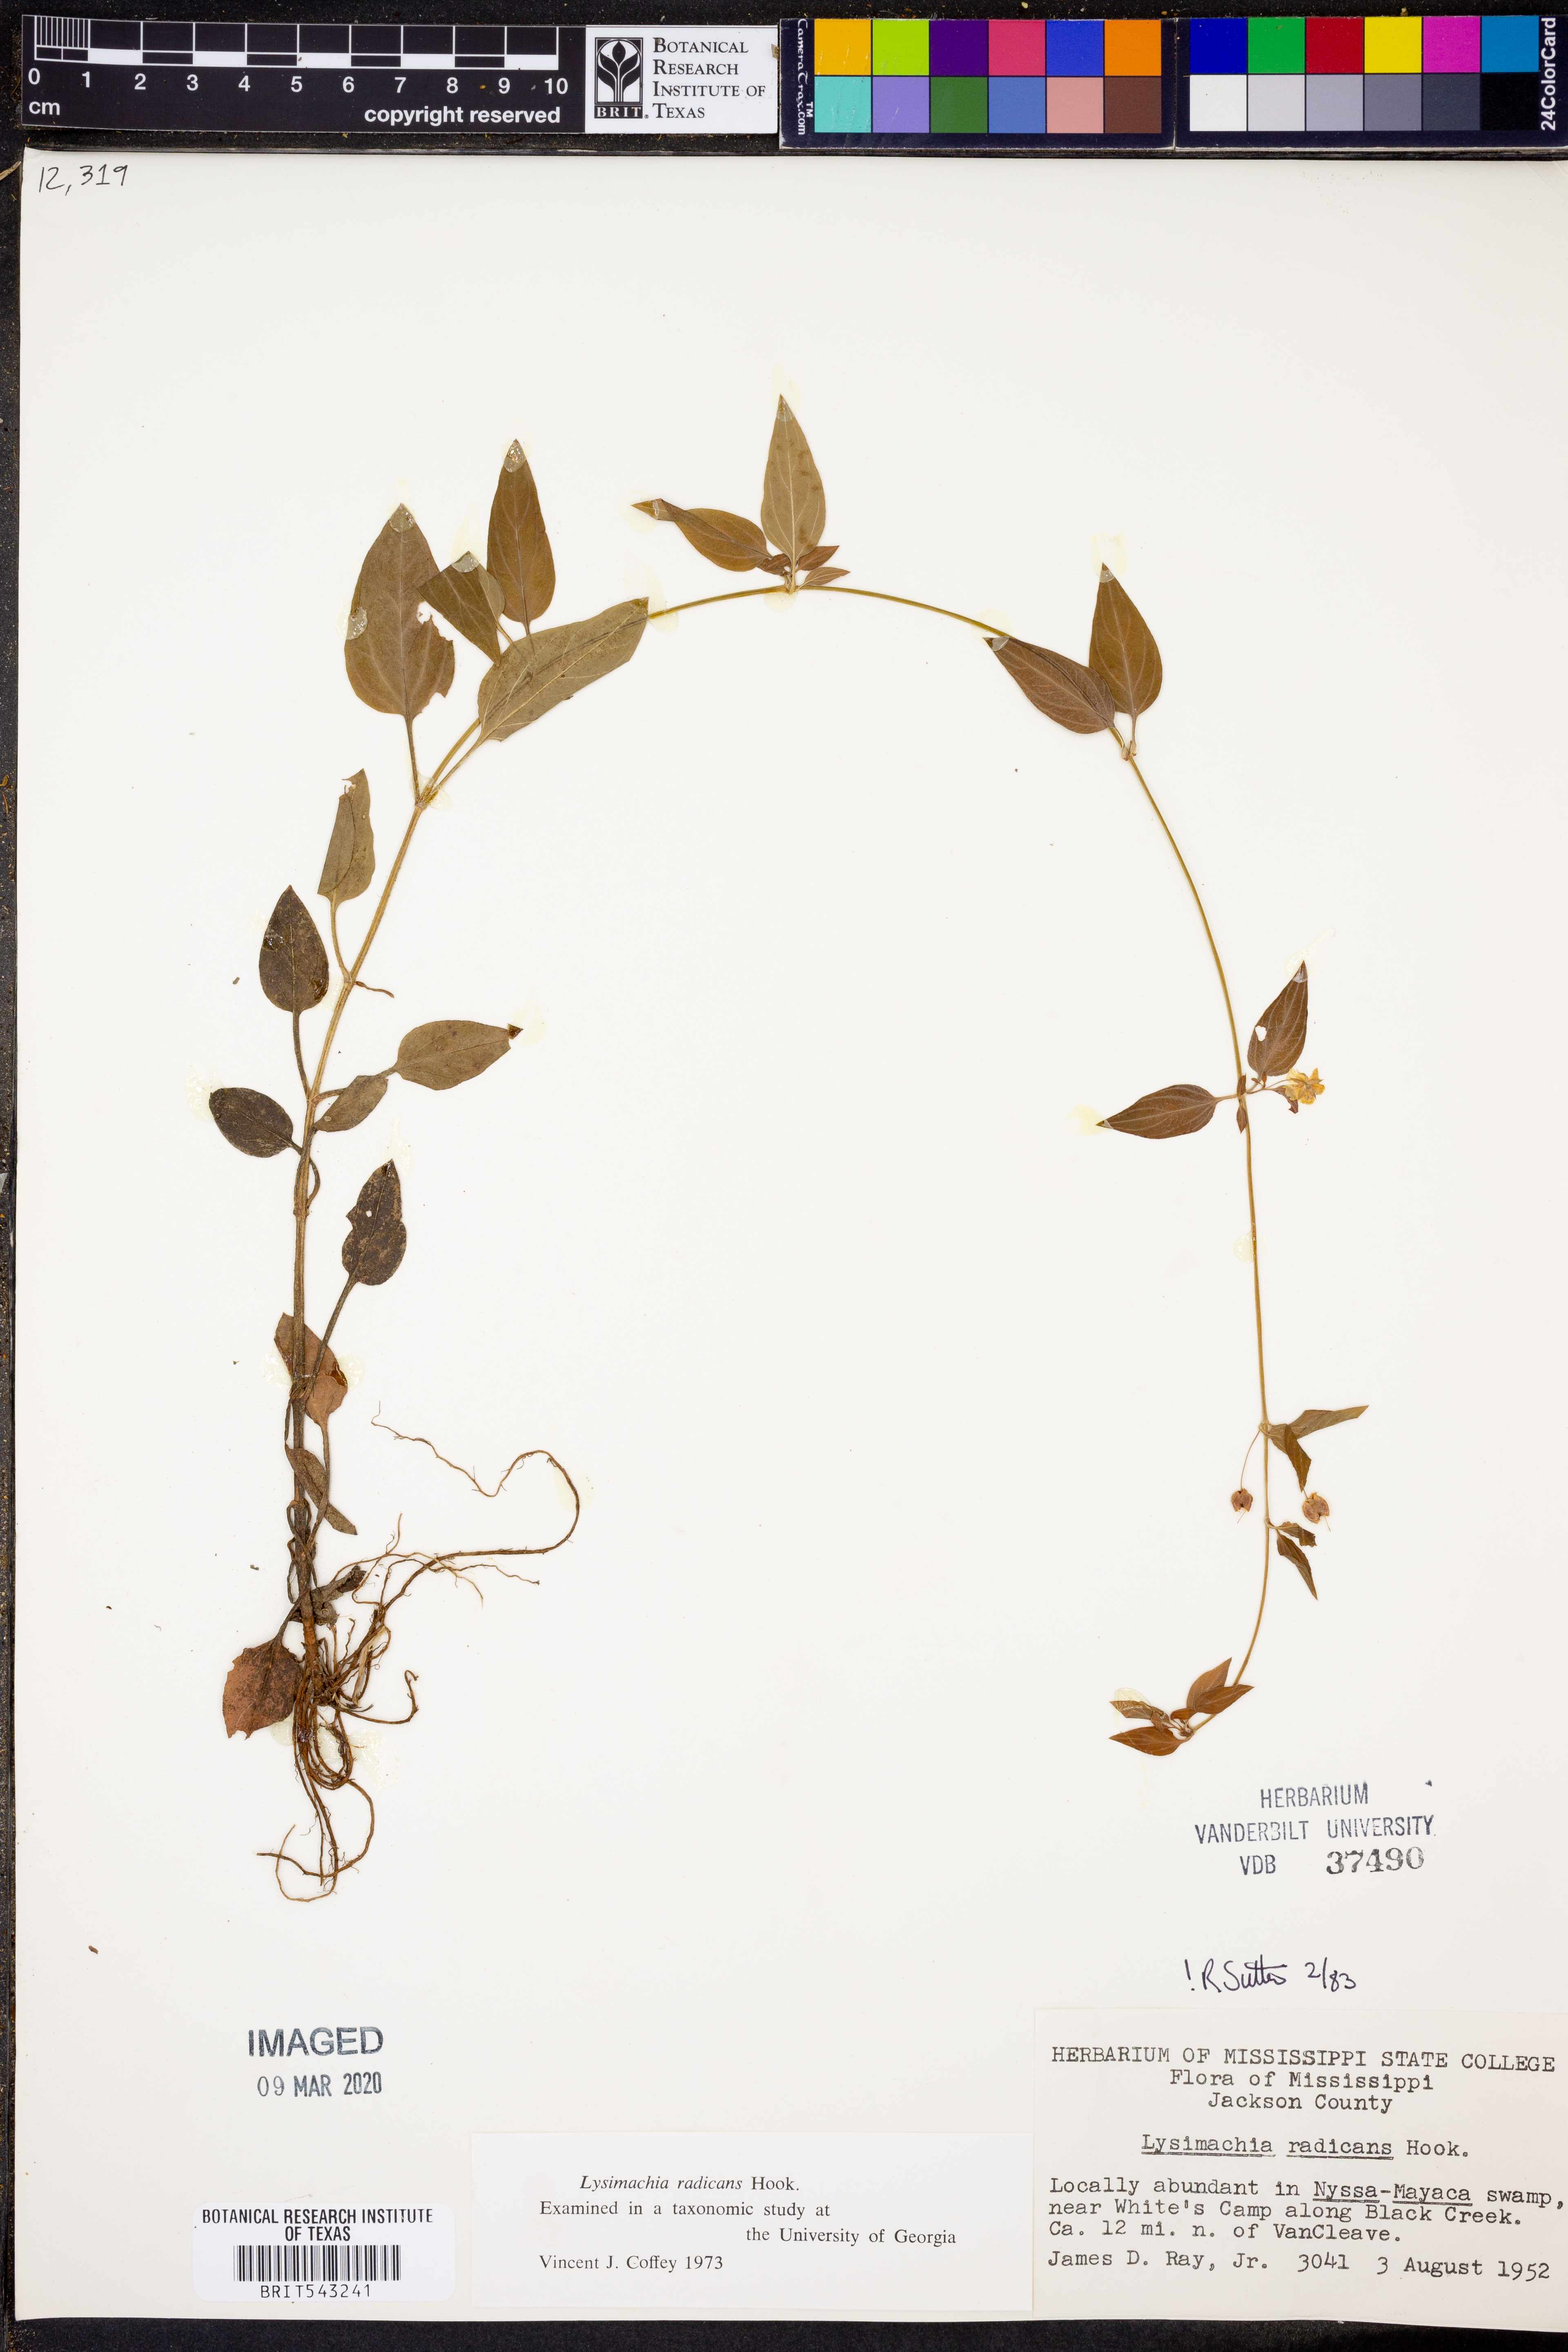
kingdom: Plantae
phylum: Tracheophyta
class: Magnoliopsida
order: Ericales
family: Primulaceae
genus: Lysimachia
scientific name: Lysimachia radicans
